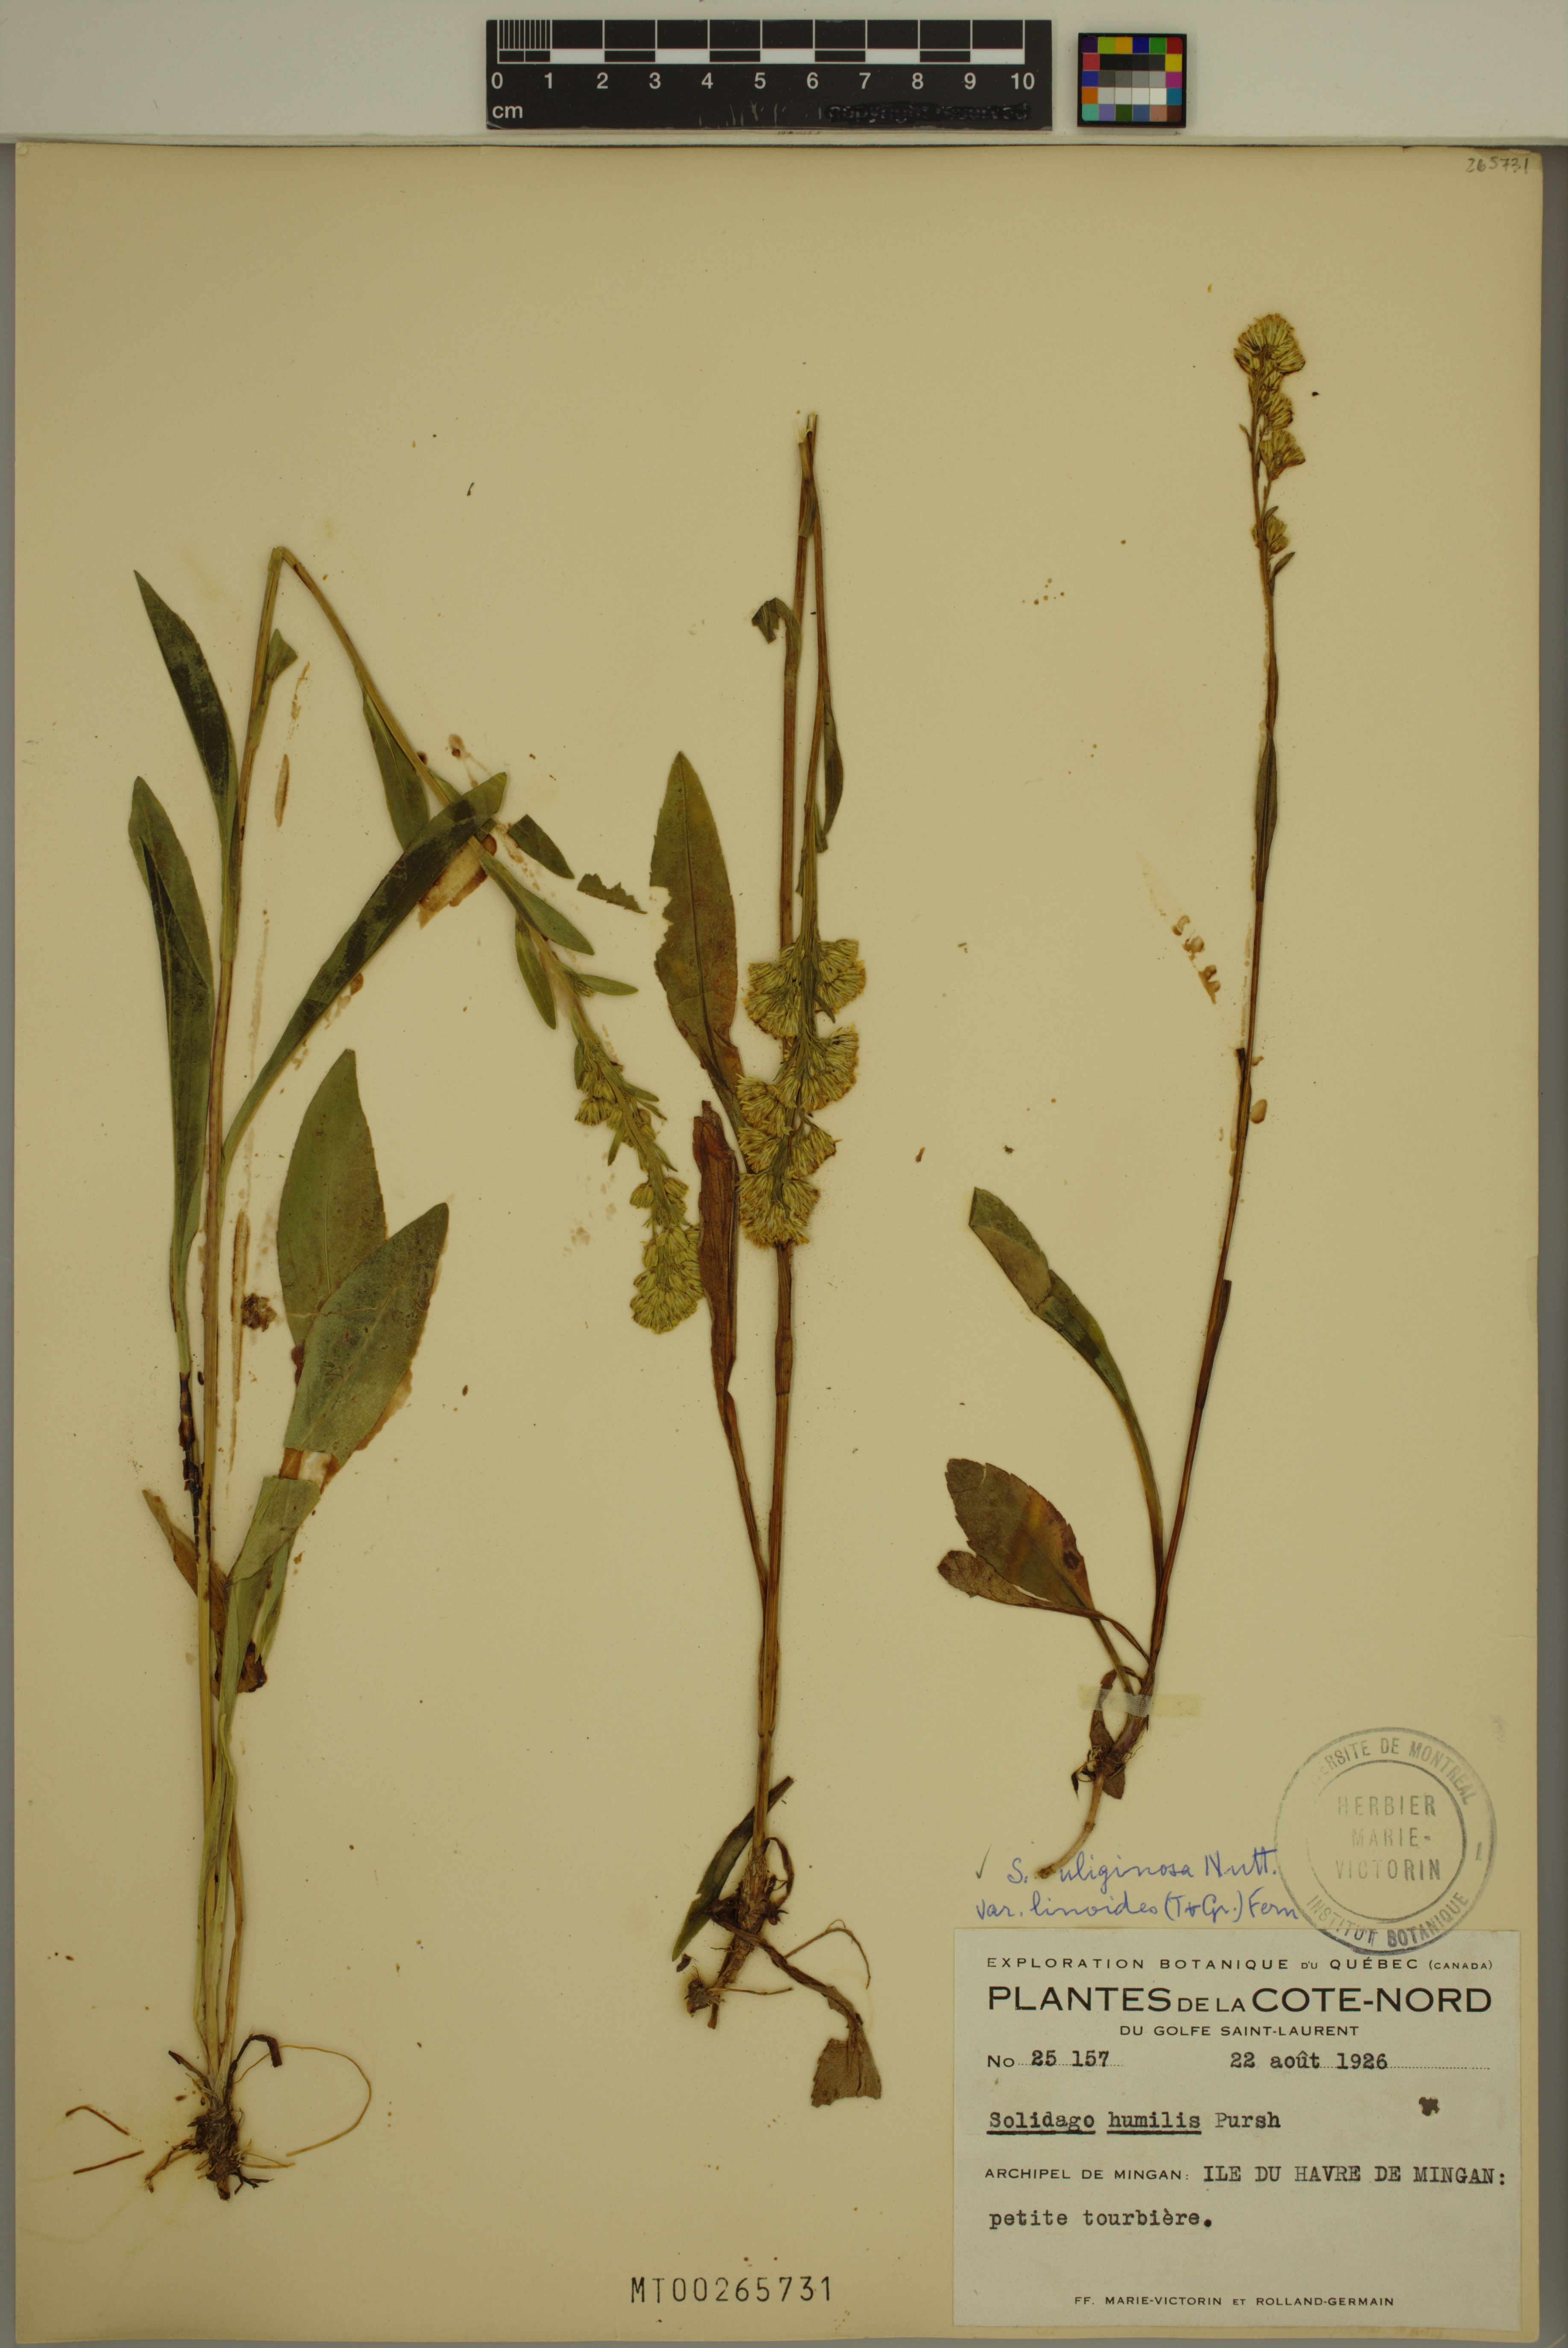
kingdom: Plantae
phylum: Tracheophyta
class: Magnoliopsida
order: Asterales
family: Asteraceae
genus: Solidago
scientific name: Solidago uliginosa
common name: Bog goldenrod
